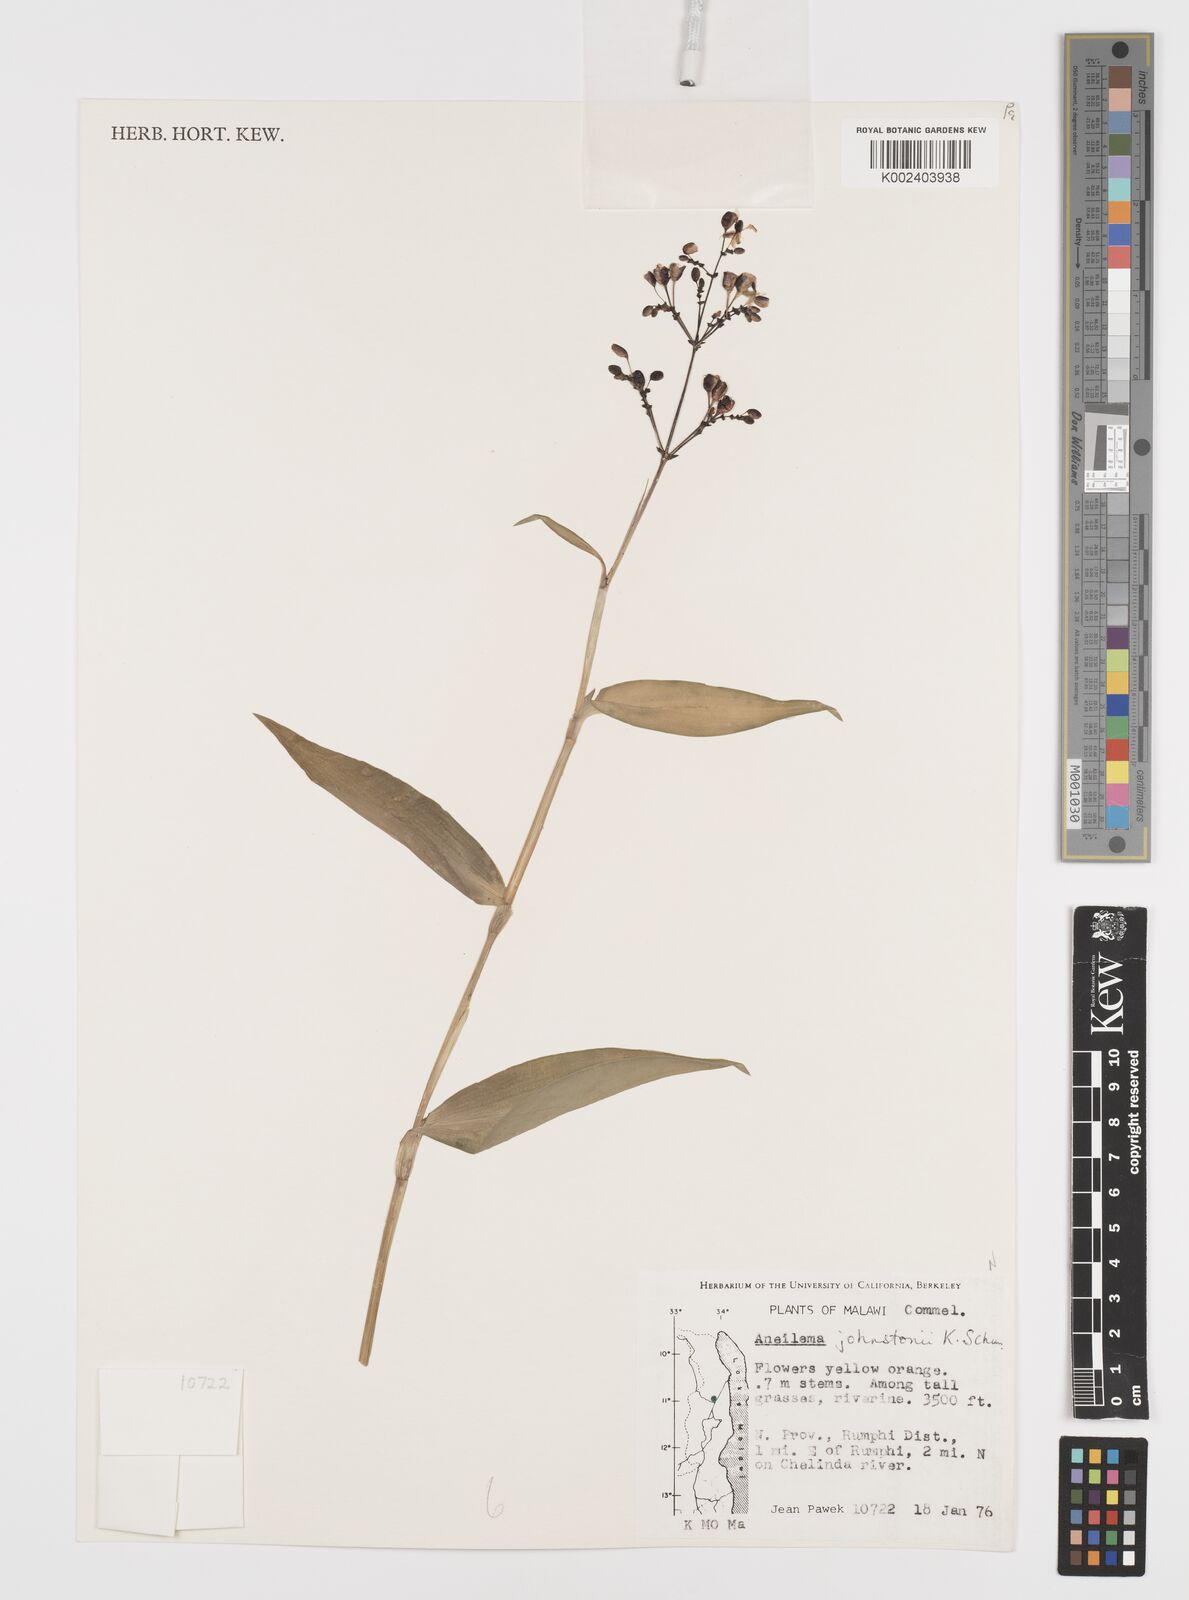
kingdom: Plantae
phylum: Tracheophyta
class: Liliopsida
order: Commelinales
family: Commelinaceae
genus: Aneilema
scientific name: Aneilema johnstonii
